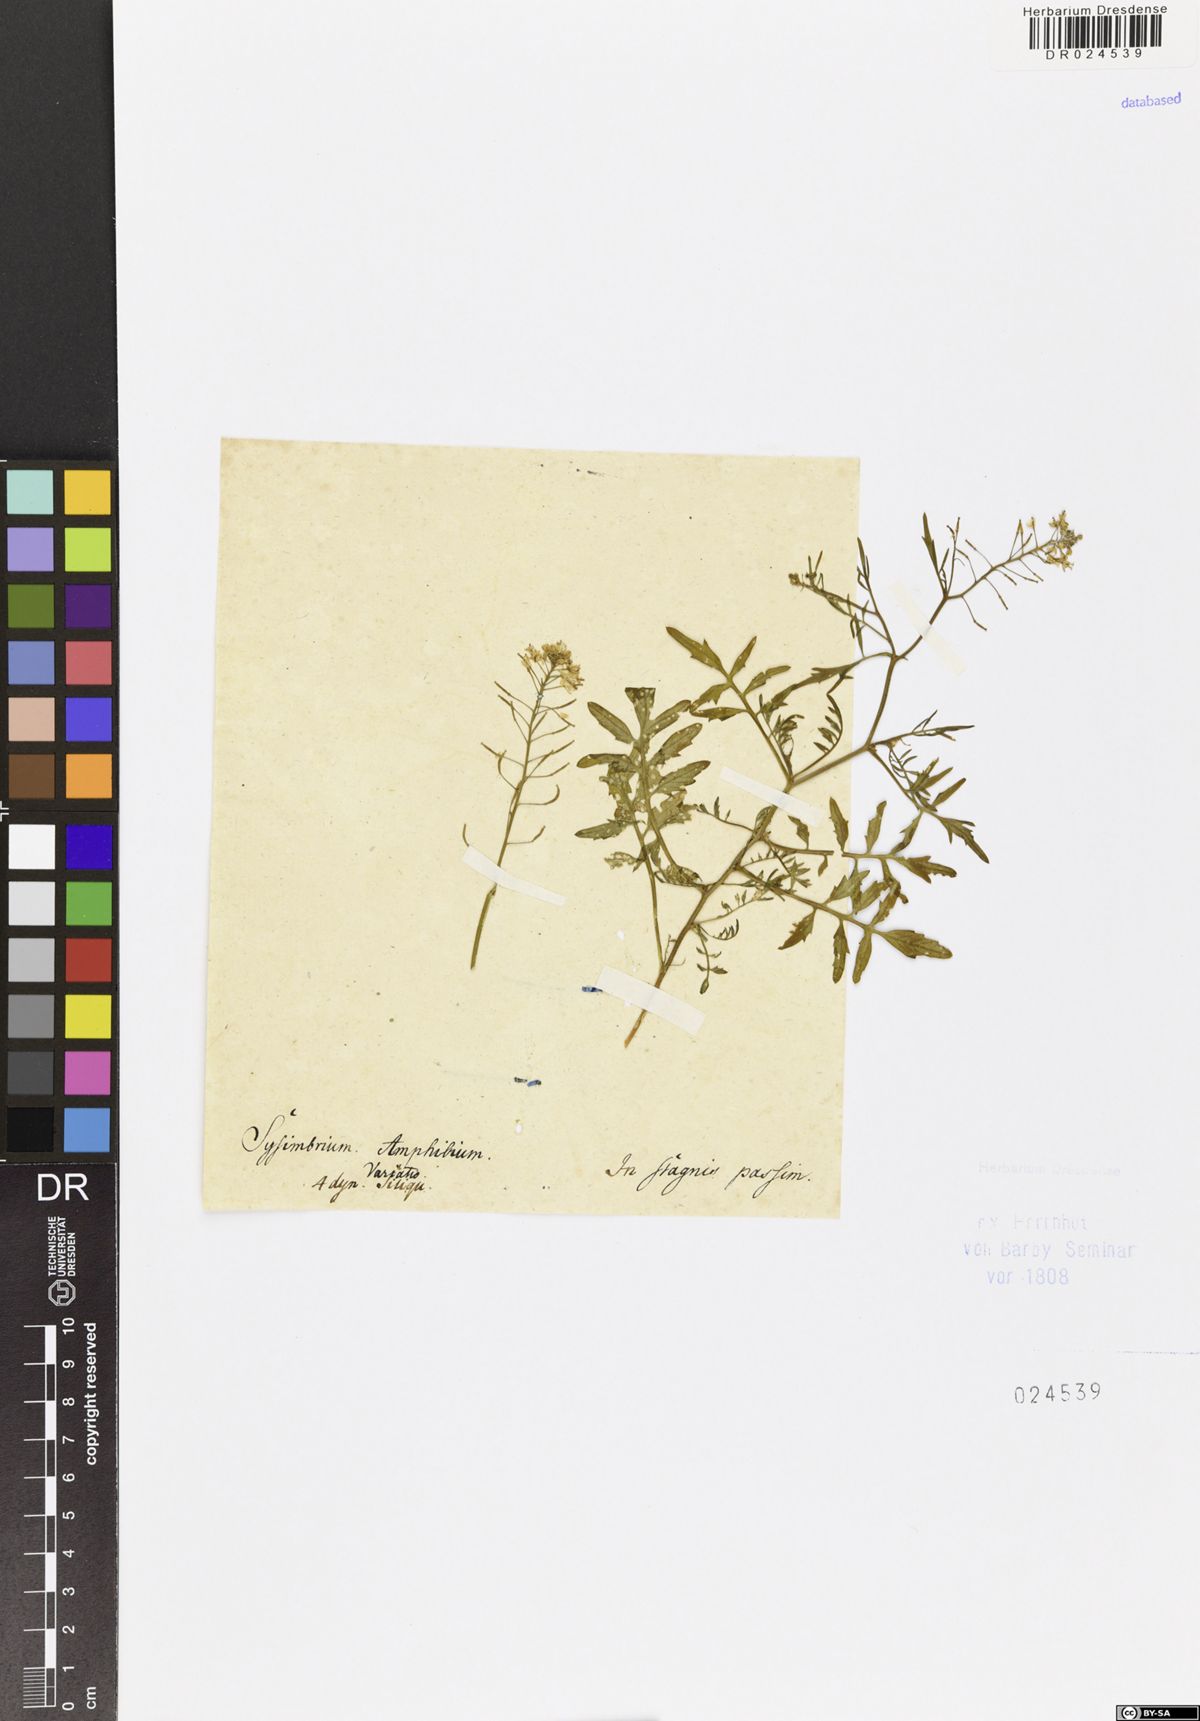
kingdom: Plantae
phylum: Tracheophyta
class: Magnoliopsida
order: Brassicales
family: Brassicaceae
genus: Rorippa
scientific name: Rorippa sylvestris
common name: Creeping yellowcress
